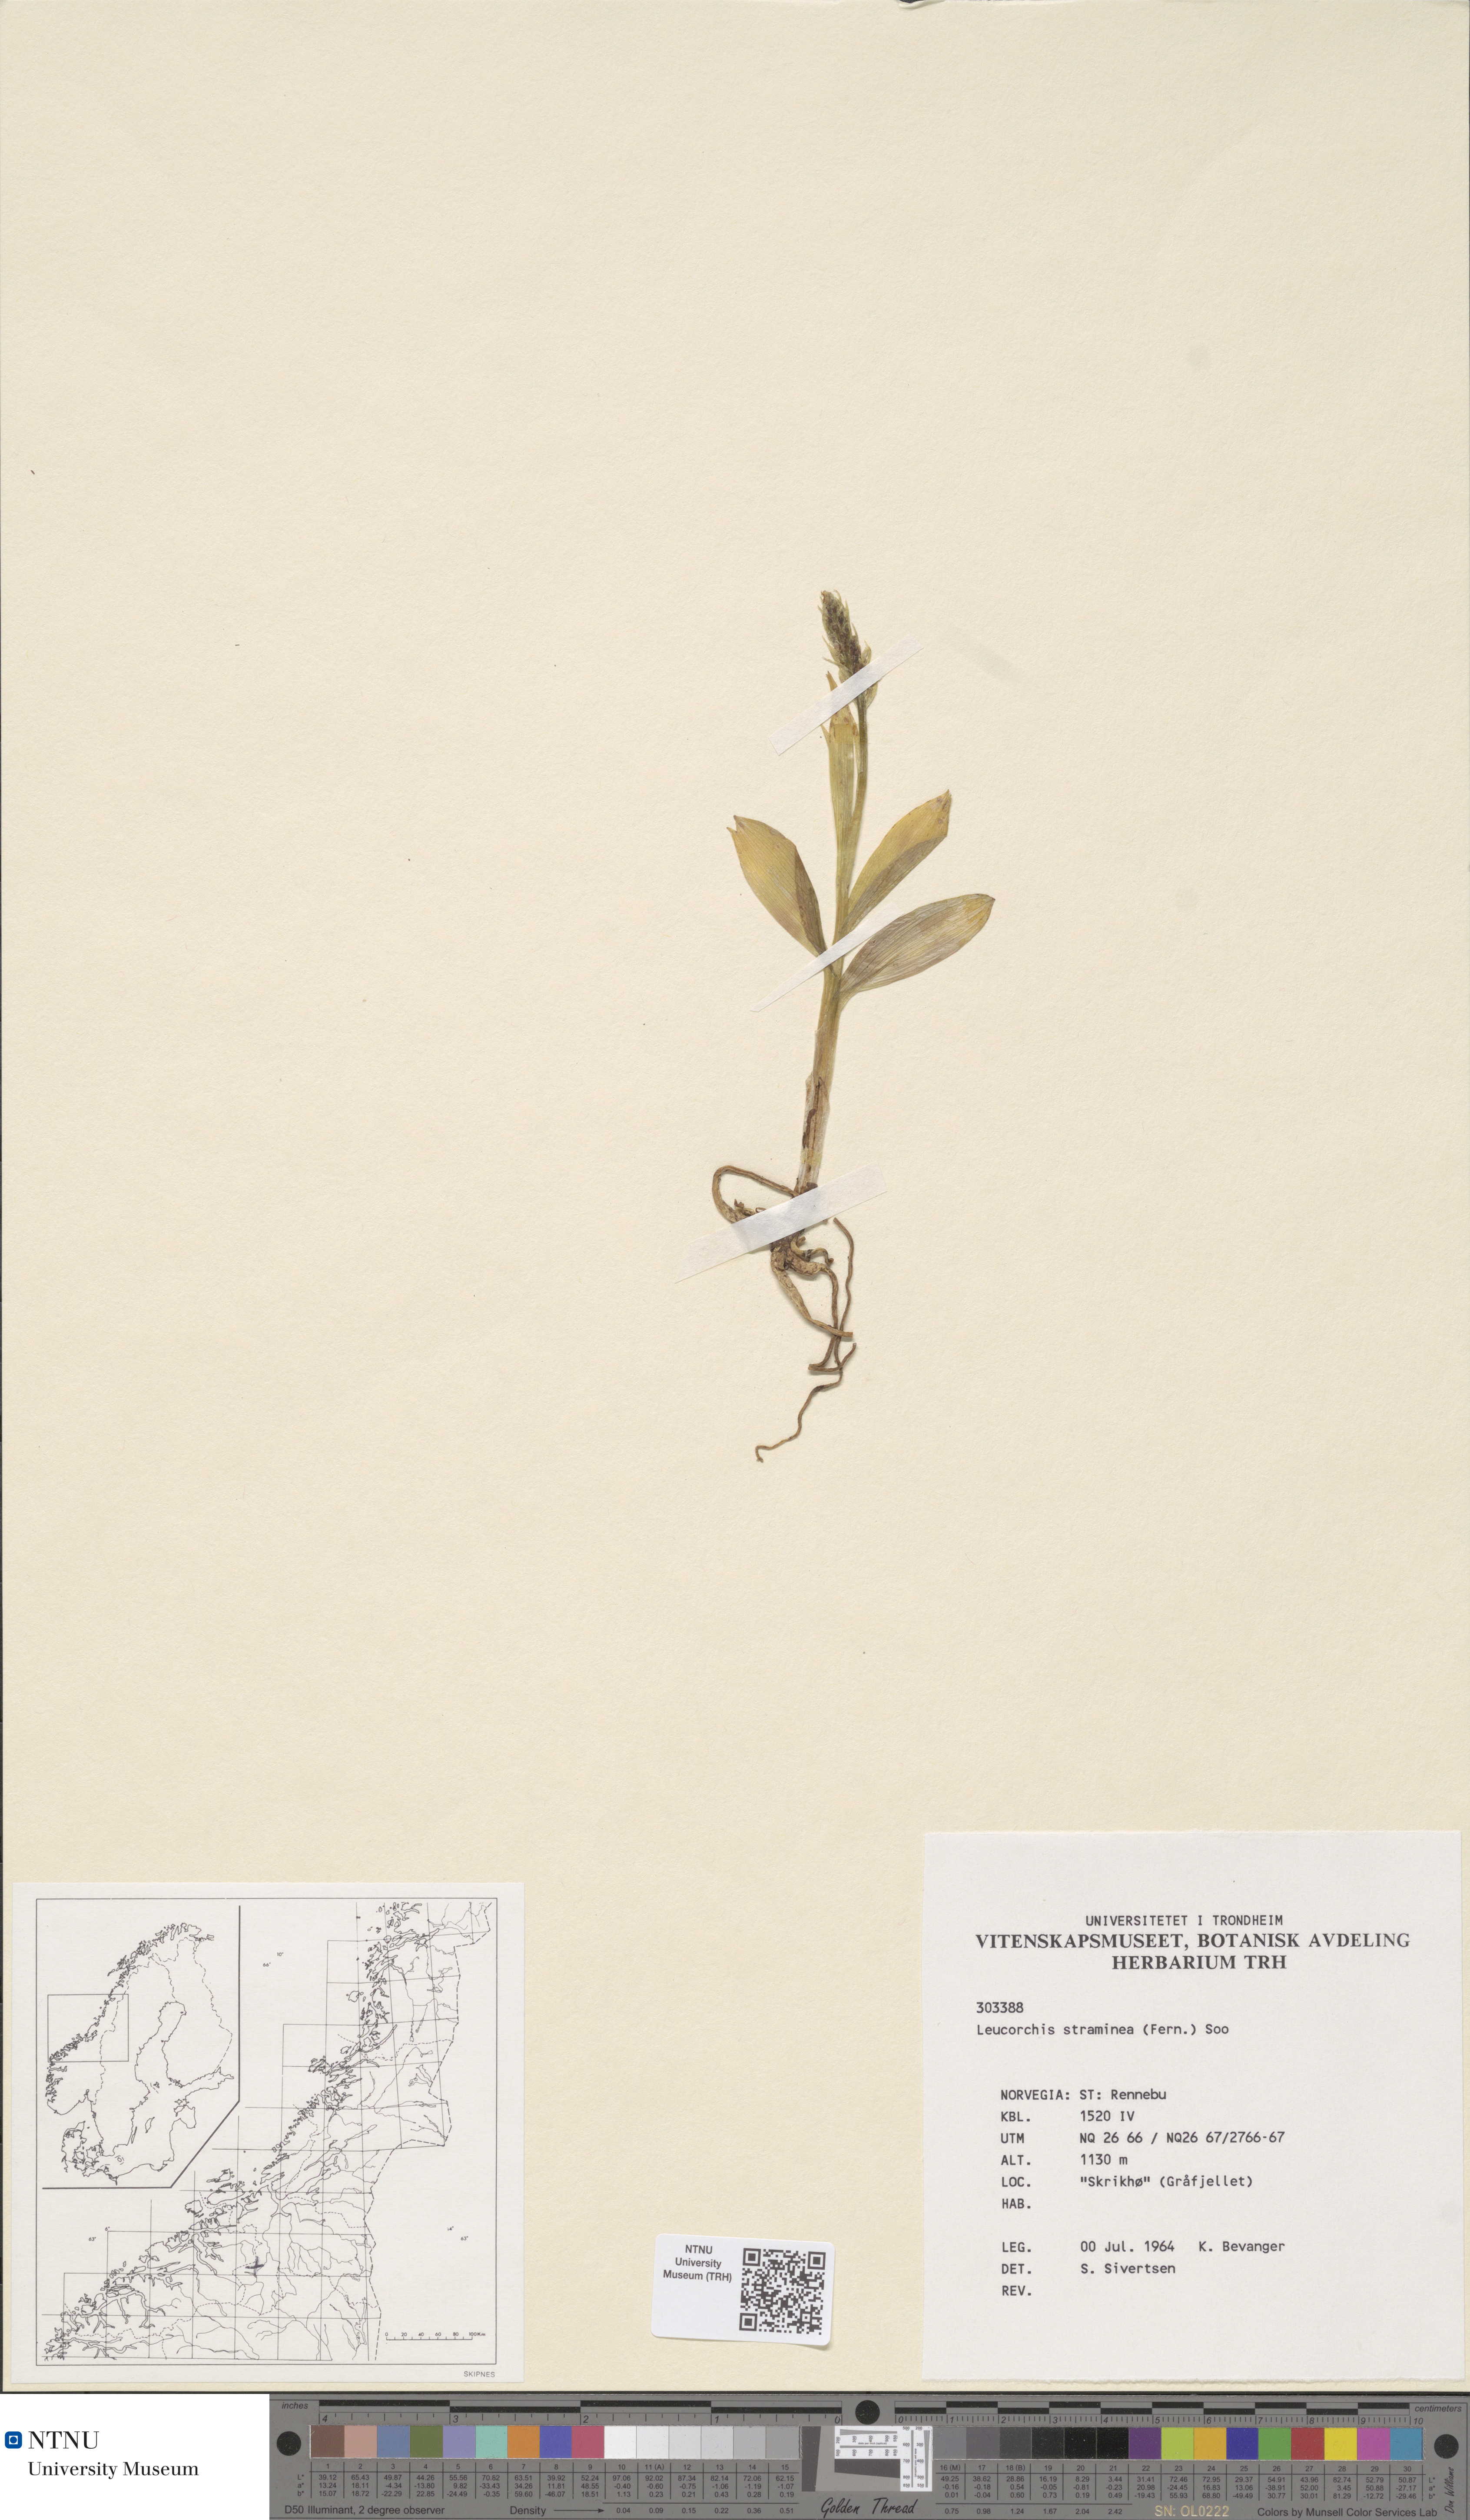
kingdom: Plantae
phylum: Tracheophyta
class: Liliopsida
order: Asparagales
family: Orchidaceae
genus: Pseudorchis
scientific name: Pseudorchis straminea
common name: Vanilla-scented bog orchid
